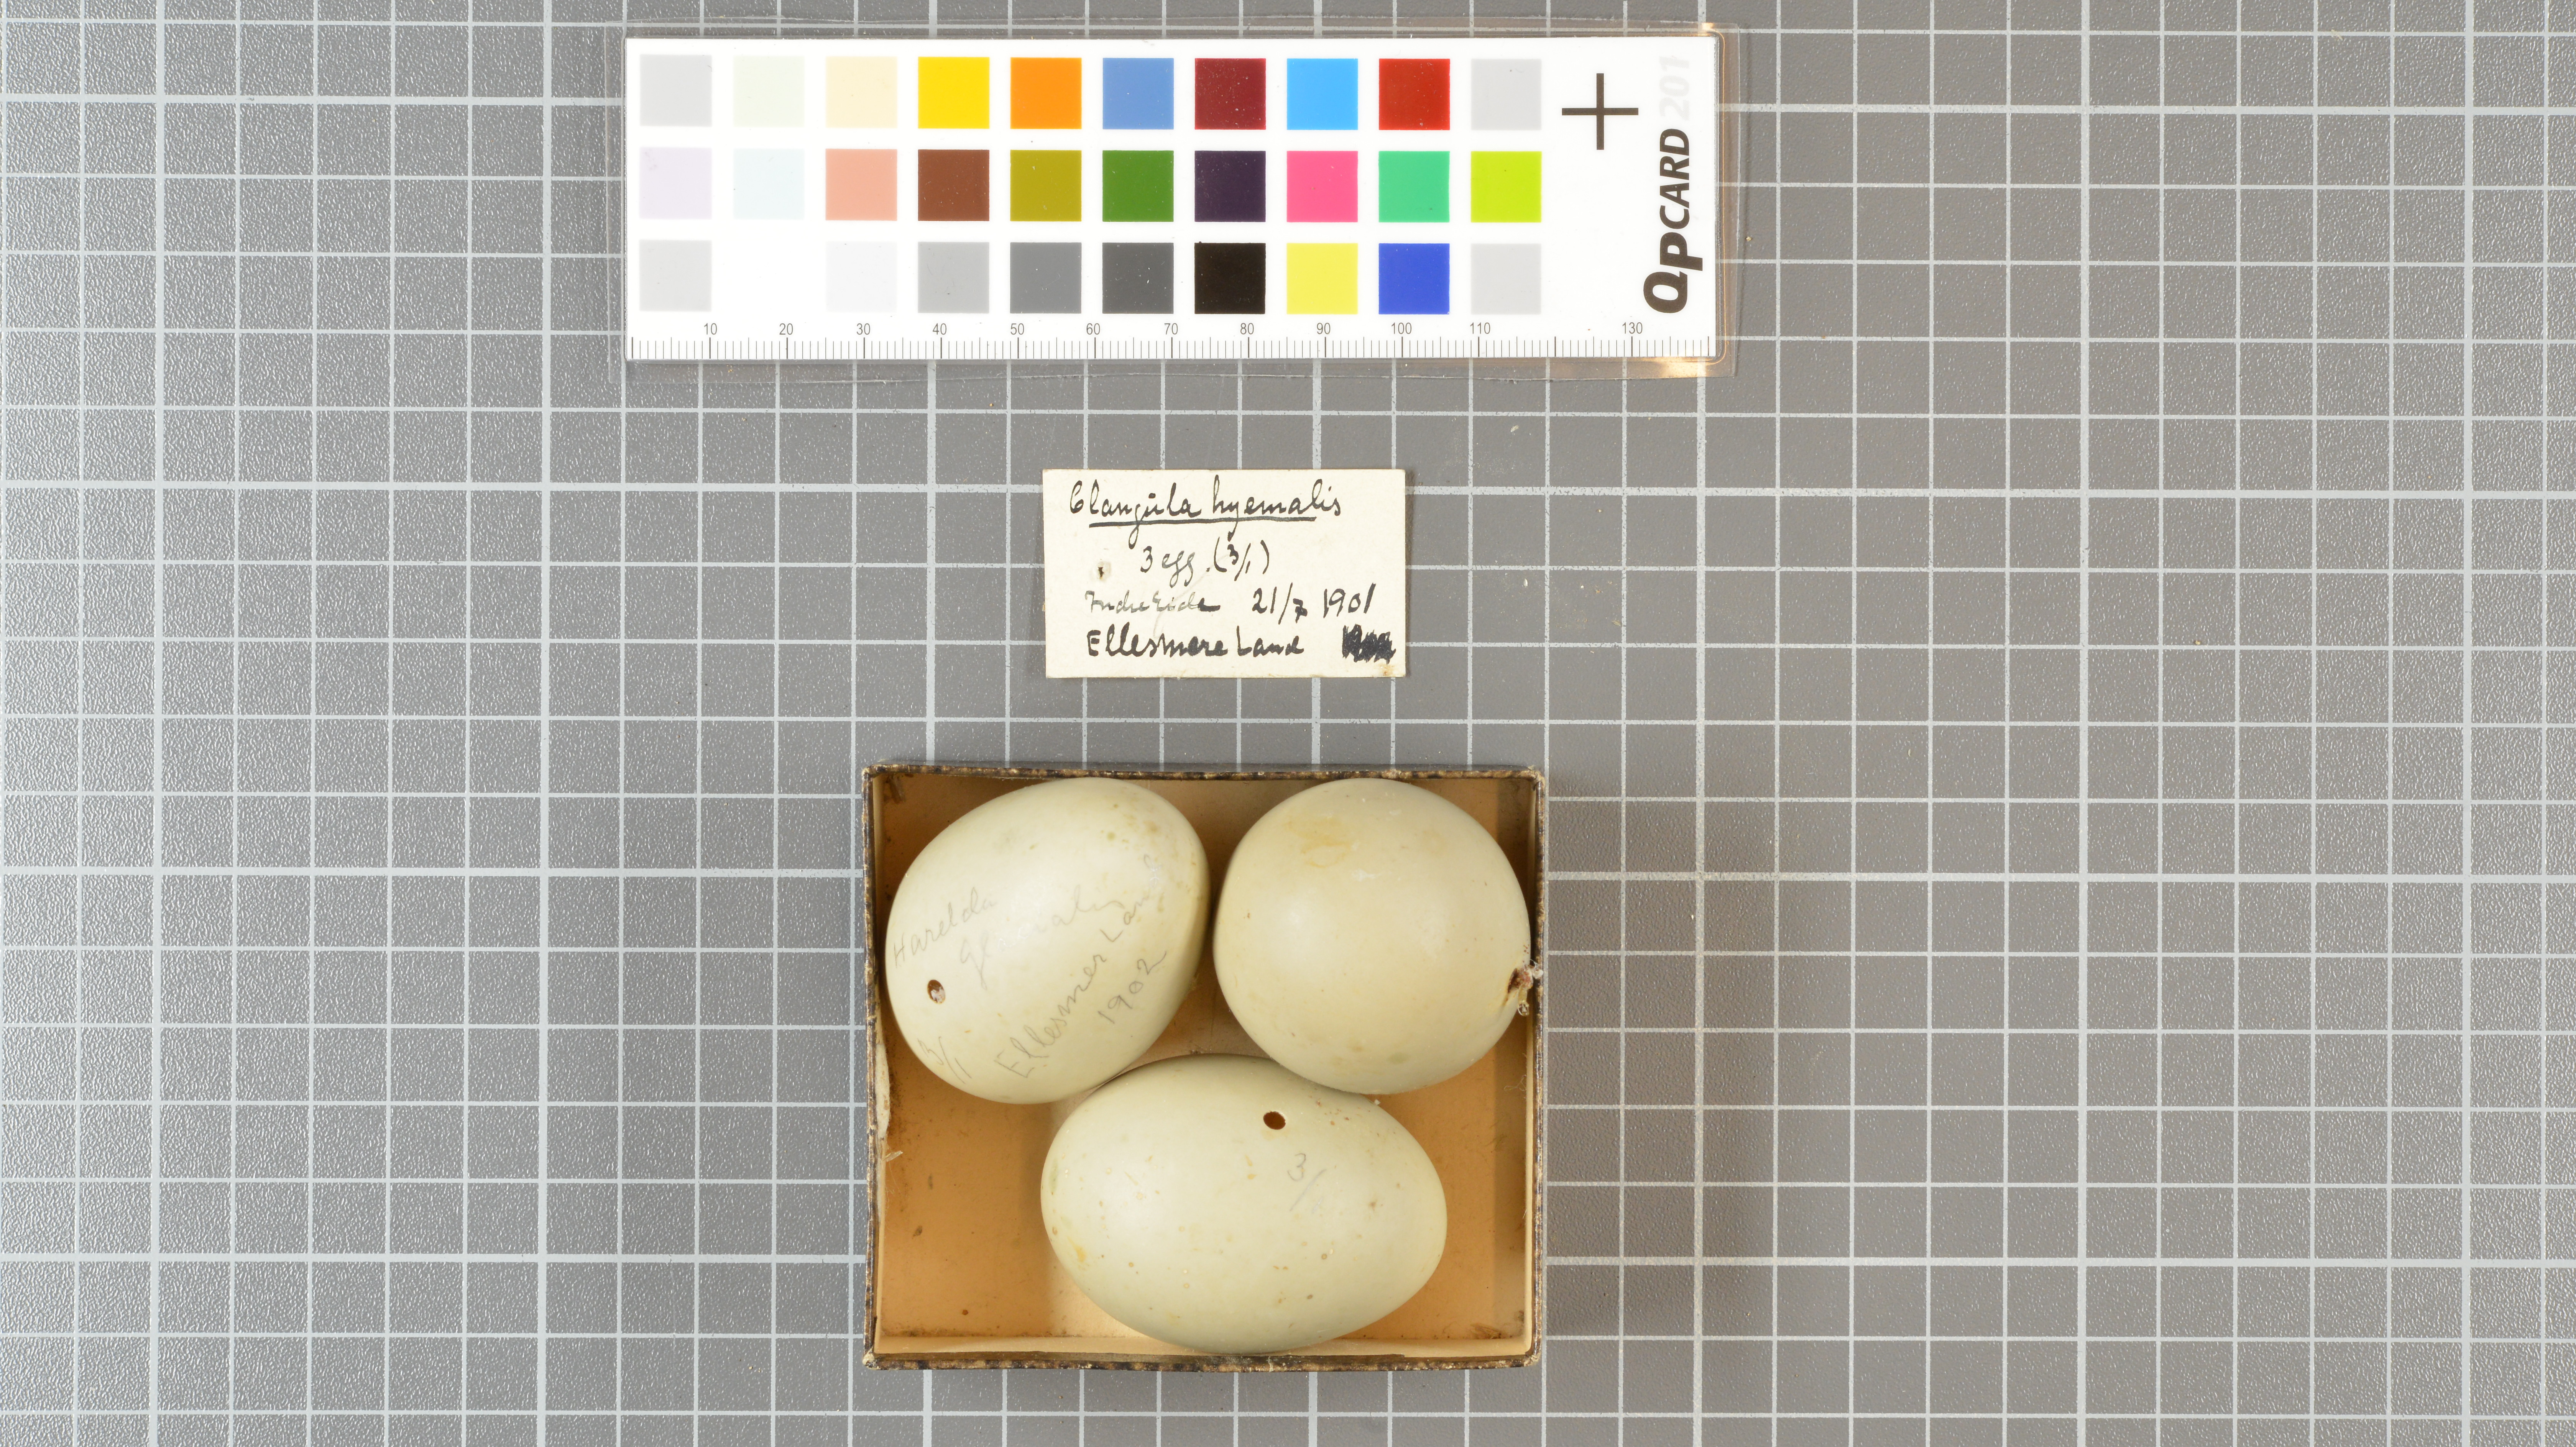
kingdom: Animalia
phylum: Chordata
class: Aves
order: Anseriformes
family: Anatidae
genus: Clangula
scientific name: Clangula hyemalis
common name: Long-tailed duck
